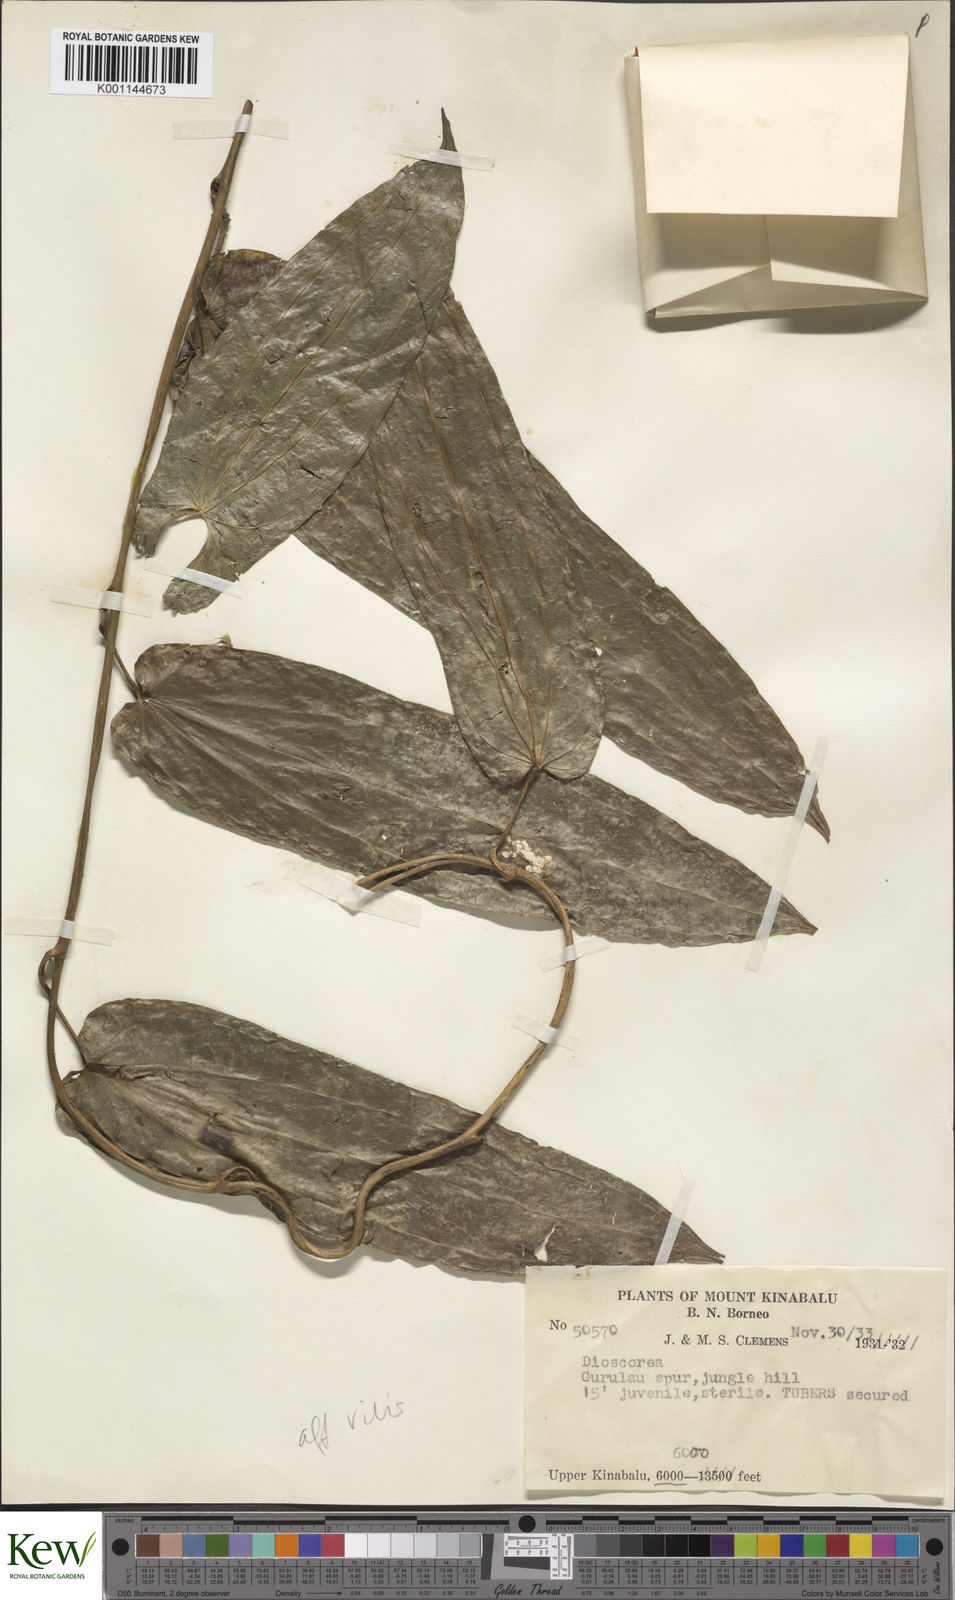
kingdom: Plantae
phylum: Tracheophyta
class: Liliopsida
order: Dioscoreales
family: Dioscoreaceae
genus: Dioscorea
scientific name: Dioscorea
